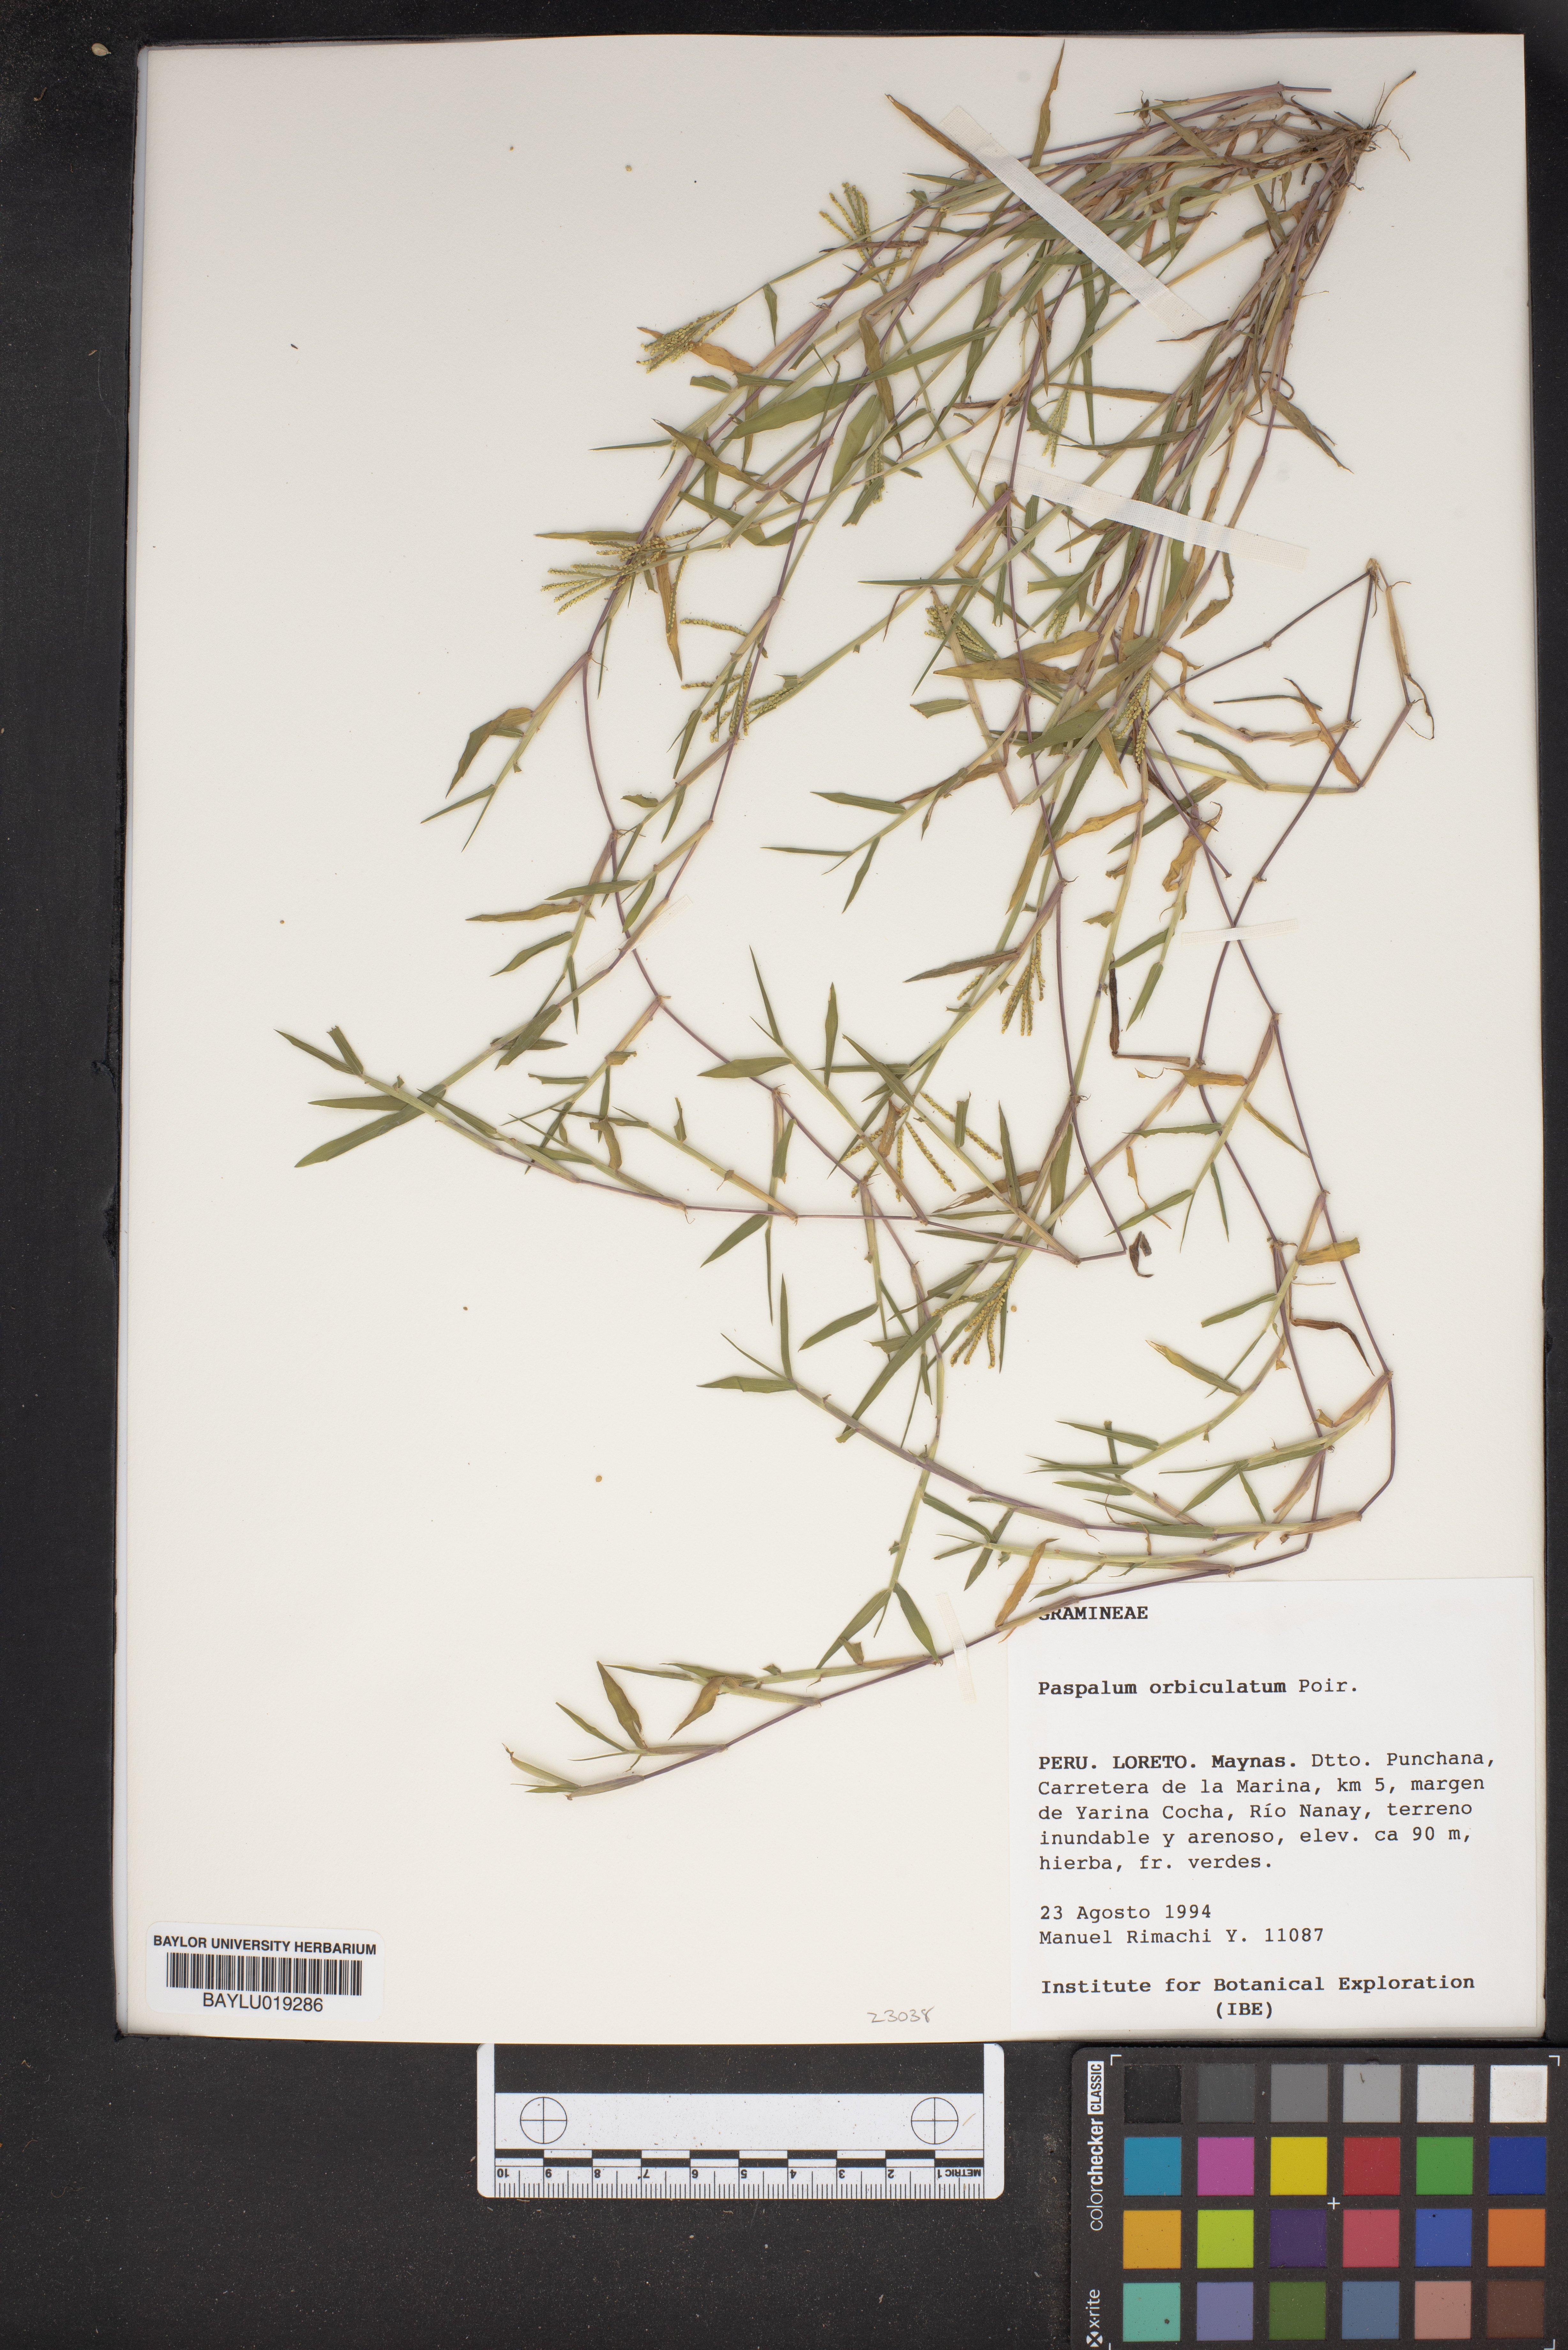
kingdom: Plantae
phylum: Tracheophyta
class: Liliopsida
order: Poales
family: Poaceae
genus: Paspalum
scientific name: Paspalum orbiculatum
